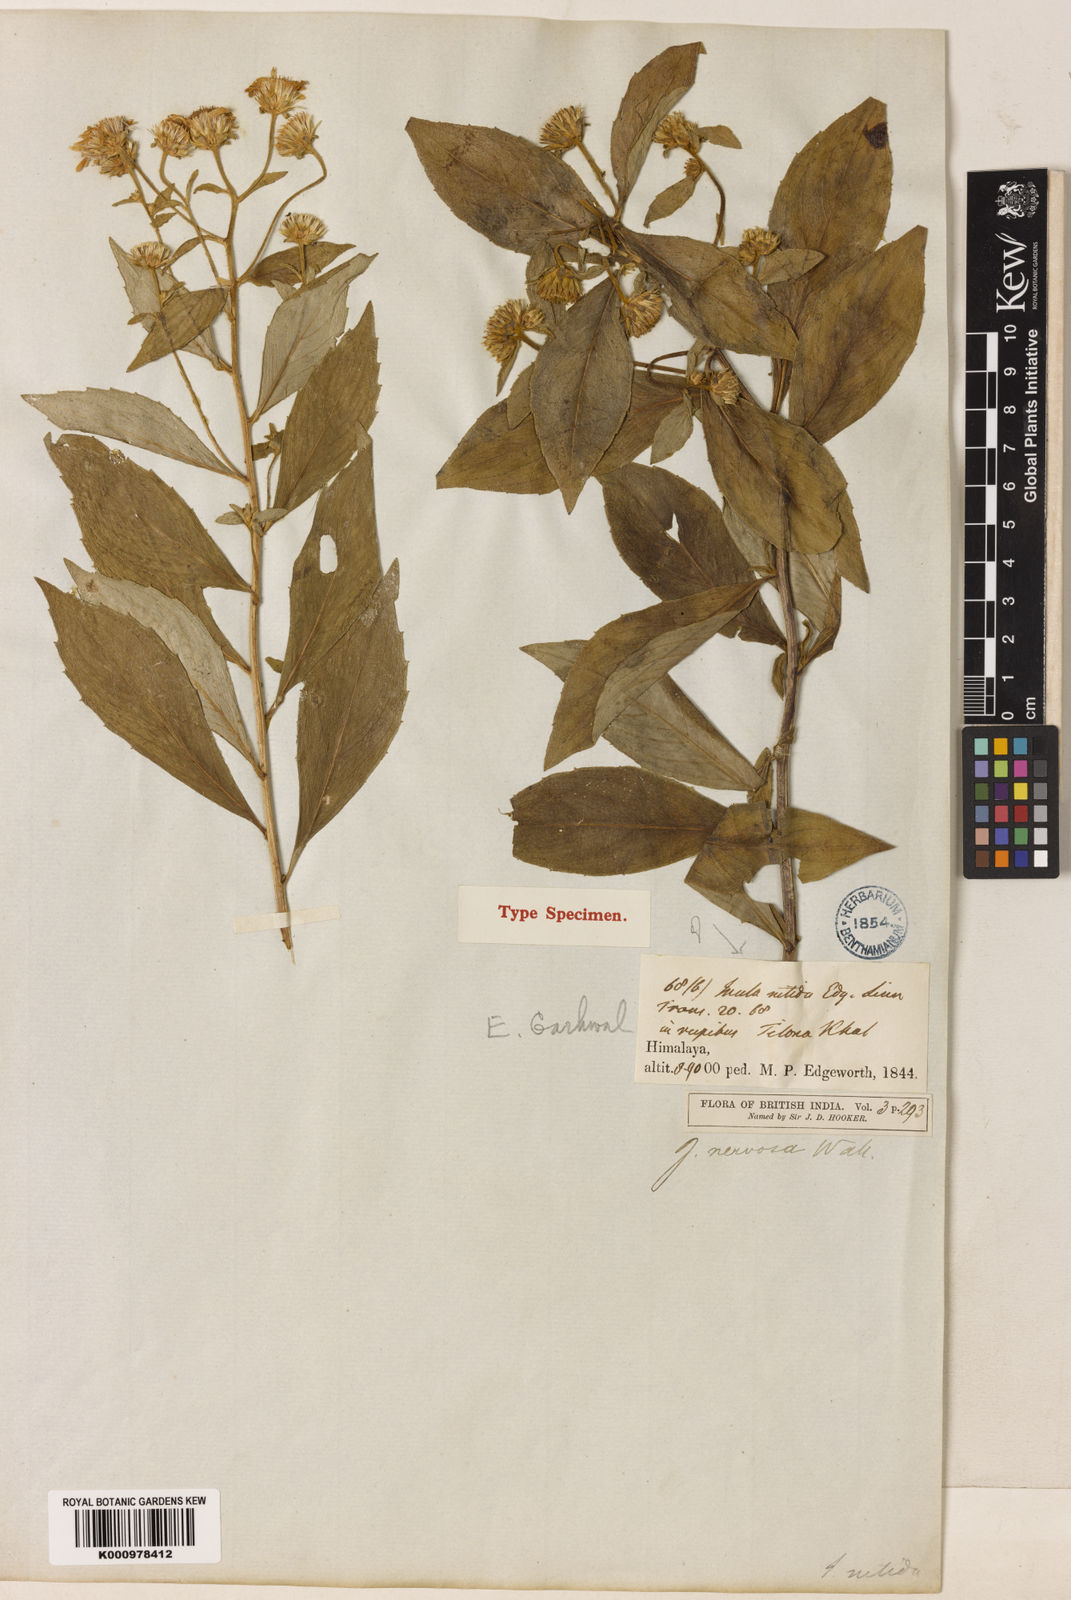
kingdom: Plantae
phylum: Tracheophyta
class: Magnoliopsida
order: Asterales
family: Asteraceae
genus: Duhaldea
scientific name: Duhaldea nervosa
